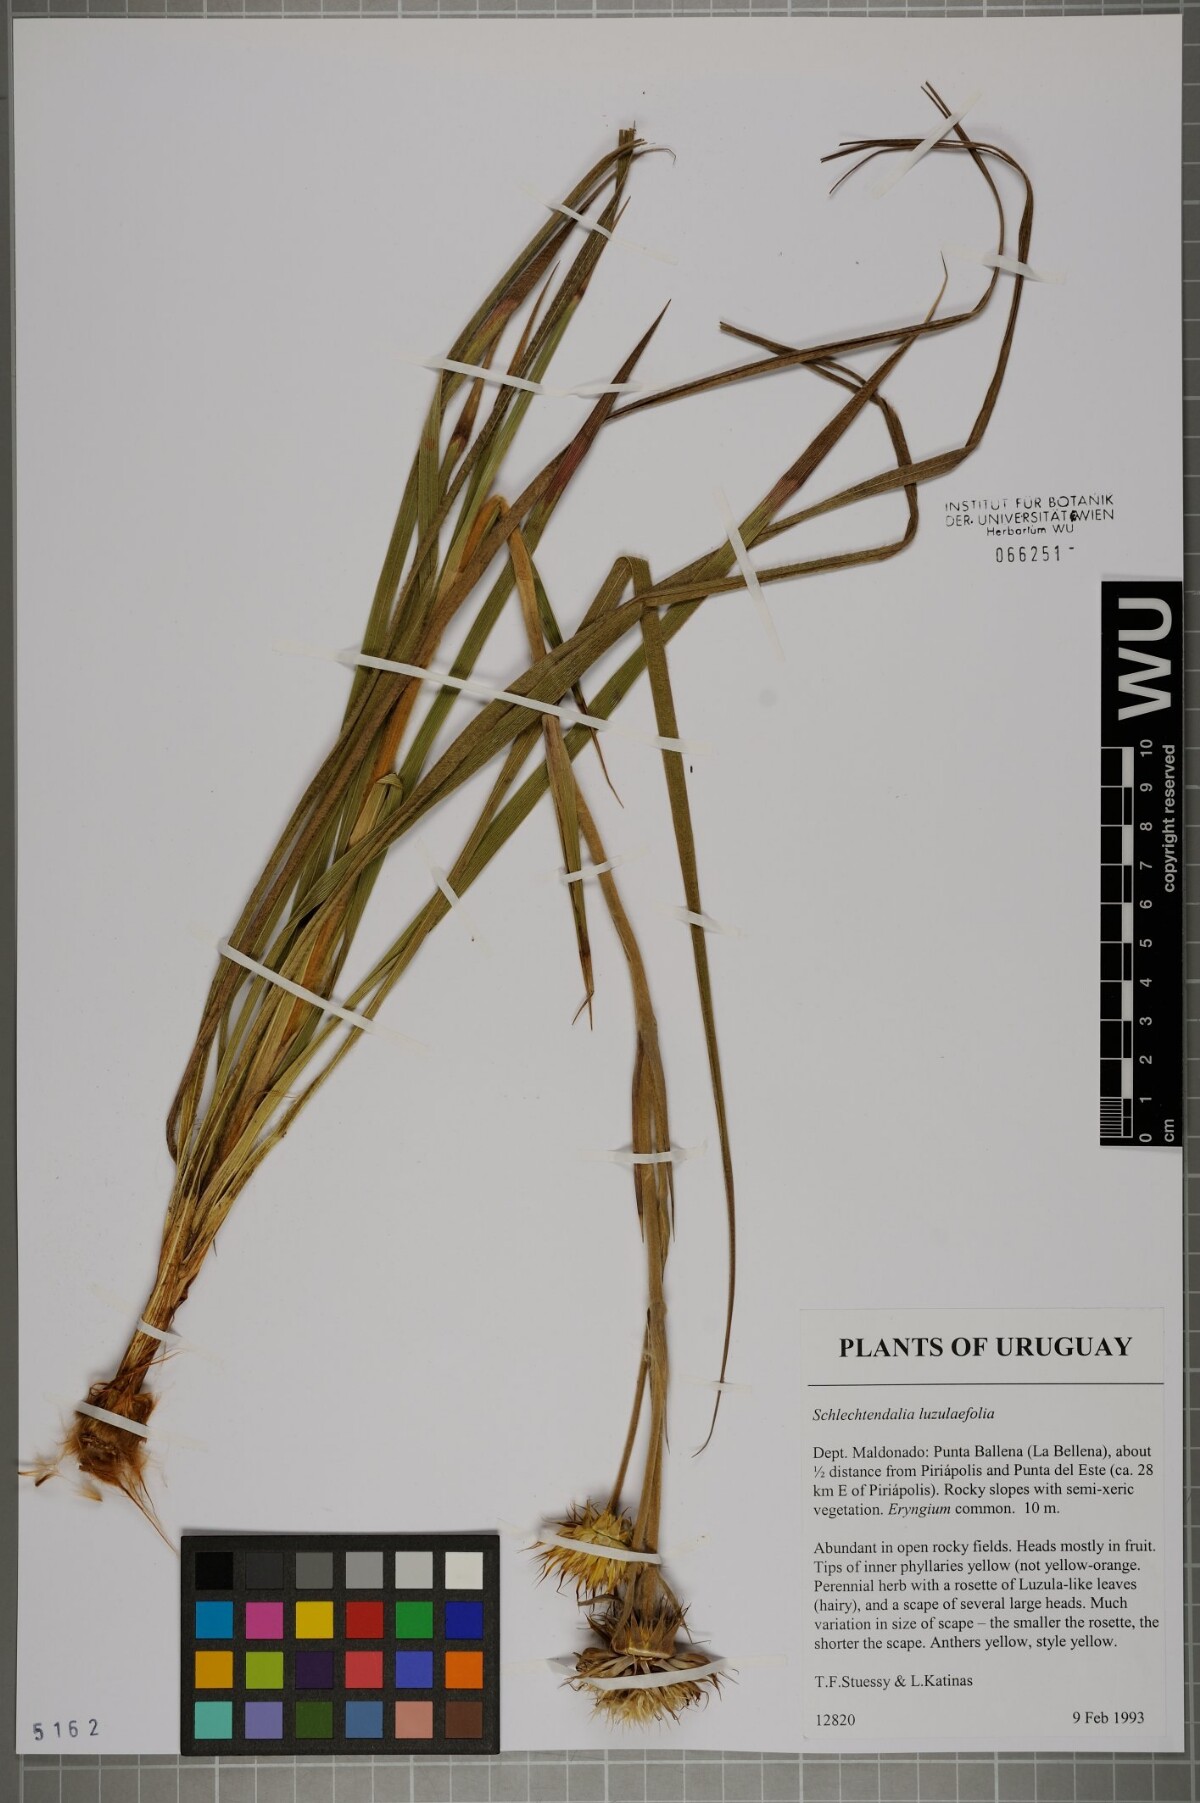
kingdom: Plantae
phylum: Tracheophyta
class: Magnoliopsida
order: Asterales
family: Asteraceae
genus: Schlechtendalia
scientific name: Schlechtendalia luzulifolia
